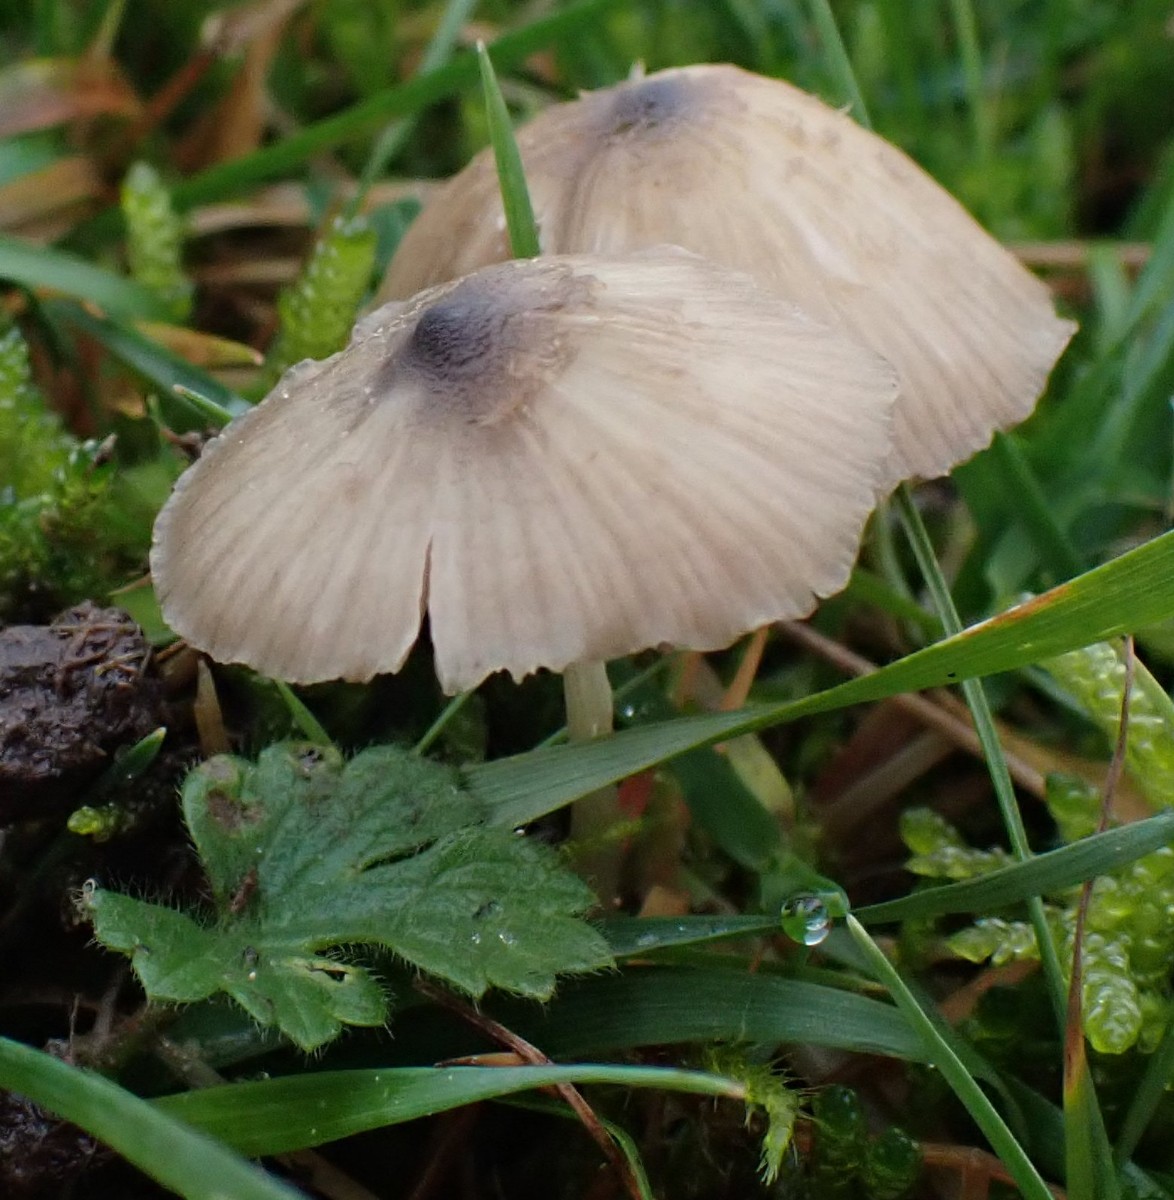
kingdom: Fungi
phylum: Basidiomycota
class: Agaricomycetes
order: Agaricales
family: Entolomataceae
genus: Entoloma
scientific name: Entoloma exile
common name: rødplettet rødblad
